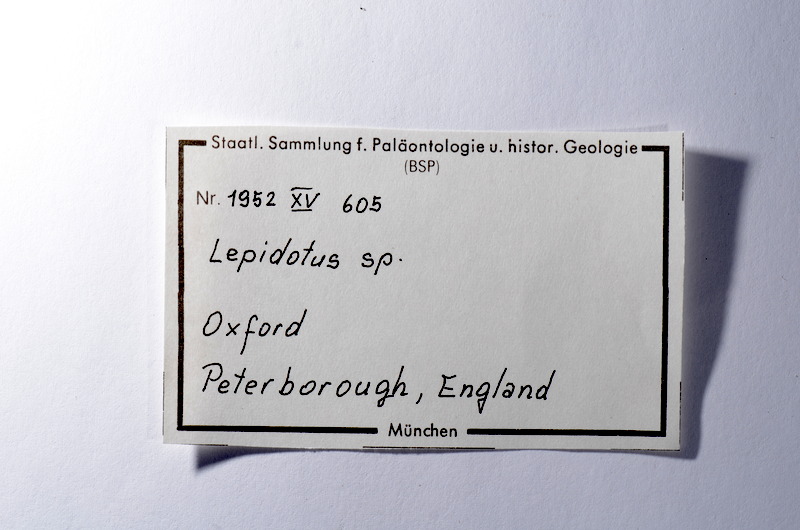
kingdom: Animalia
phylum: Chordata
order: Lepisosteiformes
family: Lepidotidae
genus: Lepidotes
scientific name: Lepidotes
